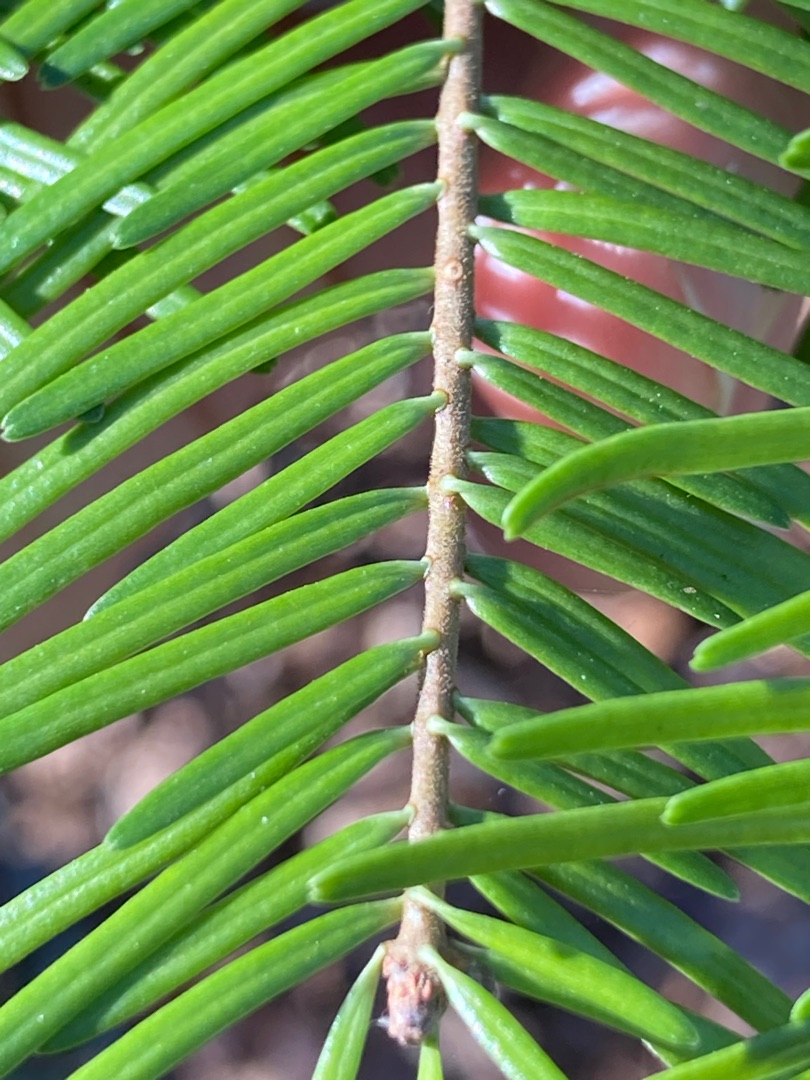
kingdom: Plantae
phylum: Tracheophyta
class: Pinopsida
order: Pinales
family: Pinaceae
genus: Abies
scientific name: Abies grandis
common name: Kæmpegran
